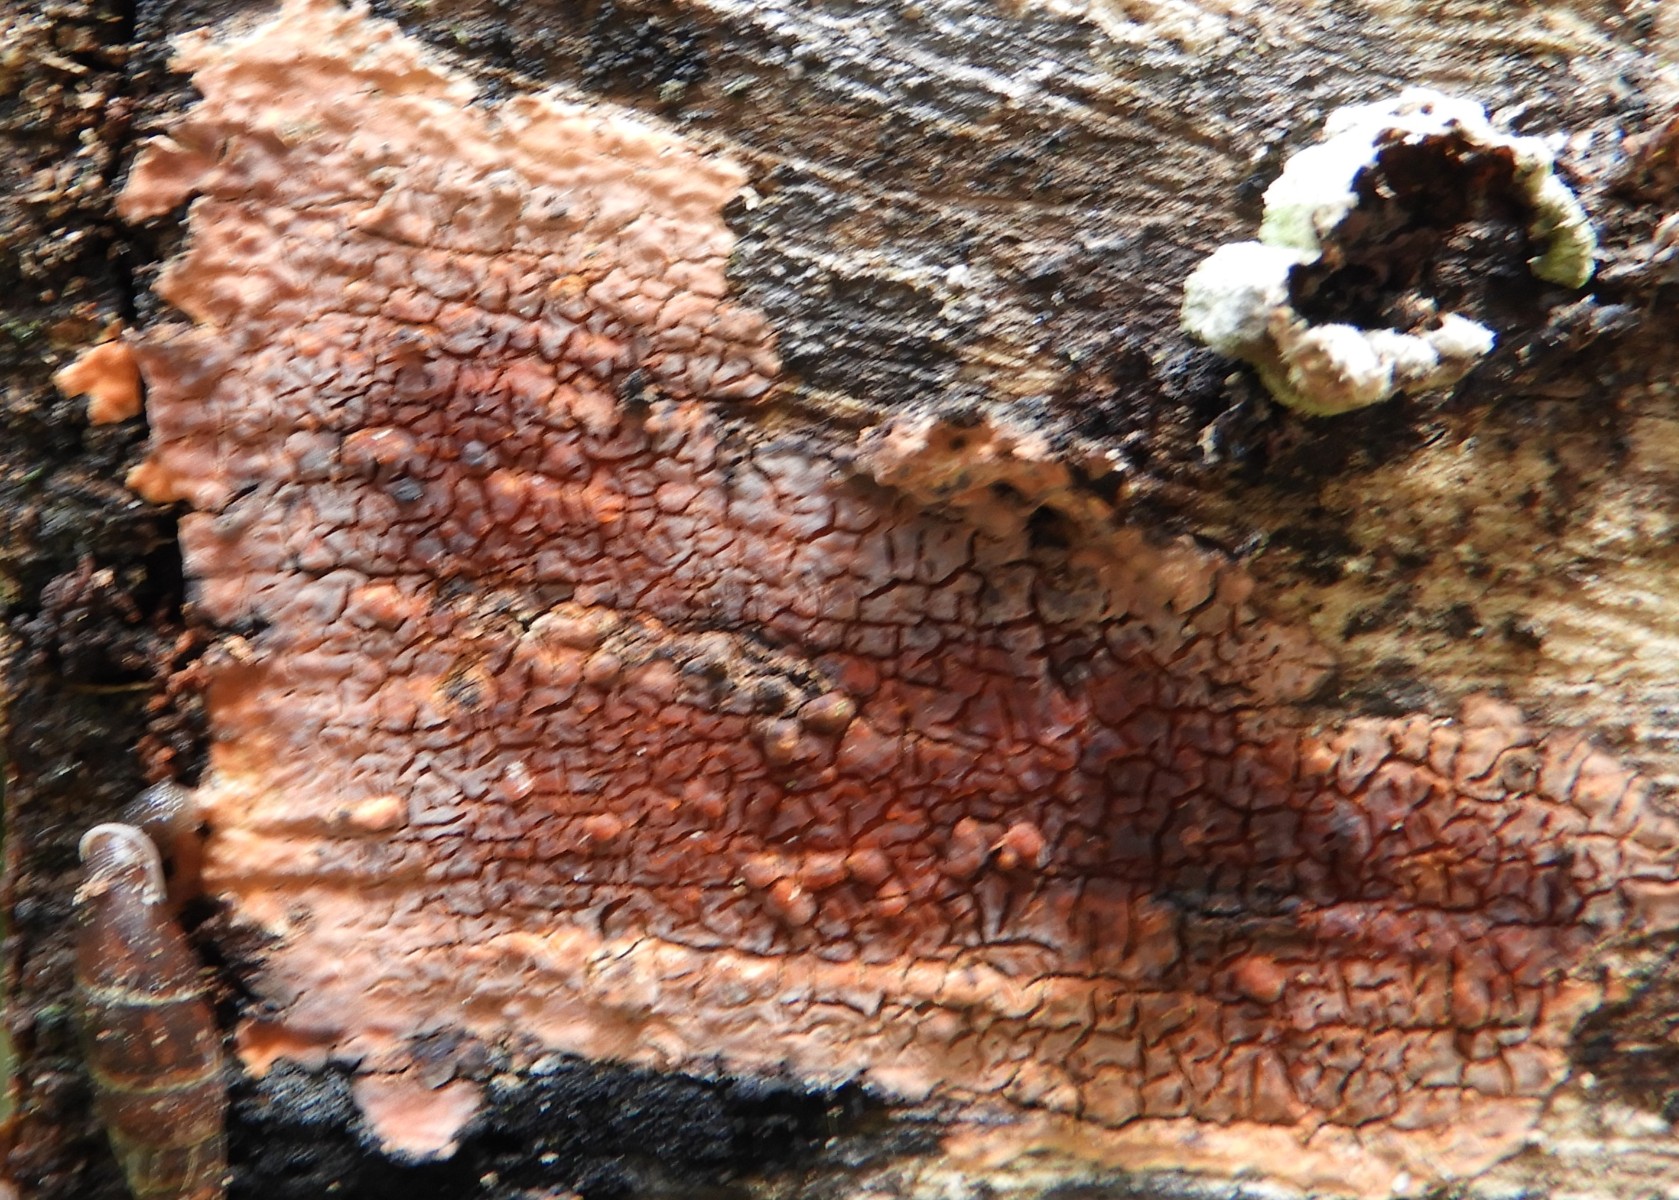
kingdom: Fungi
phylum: Basidiomycota
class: Agaricomycetes
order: Corticiales
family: Corticiaceae
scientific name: Corticiaceae
